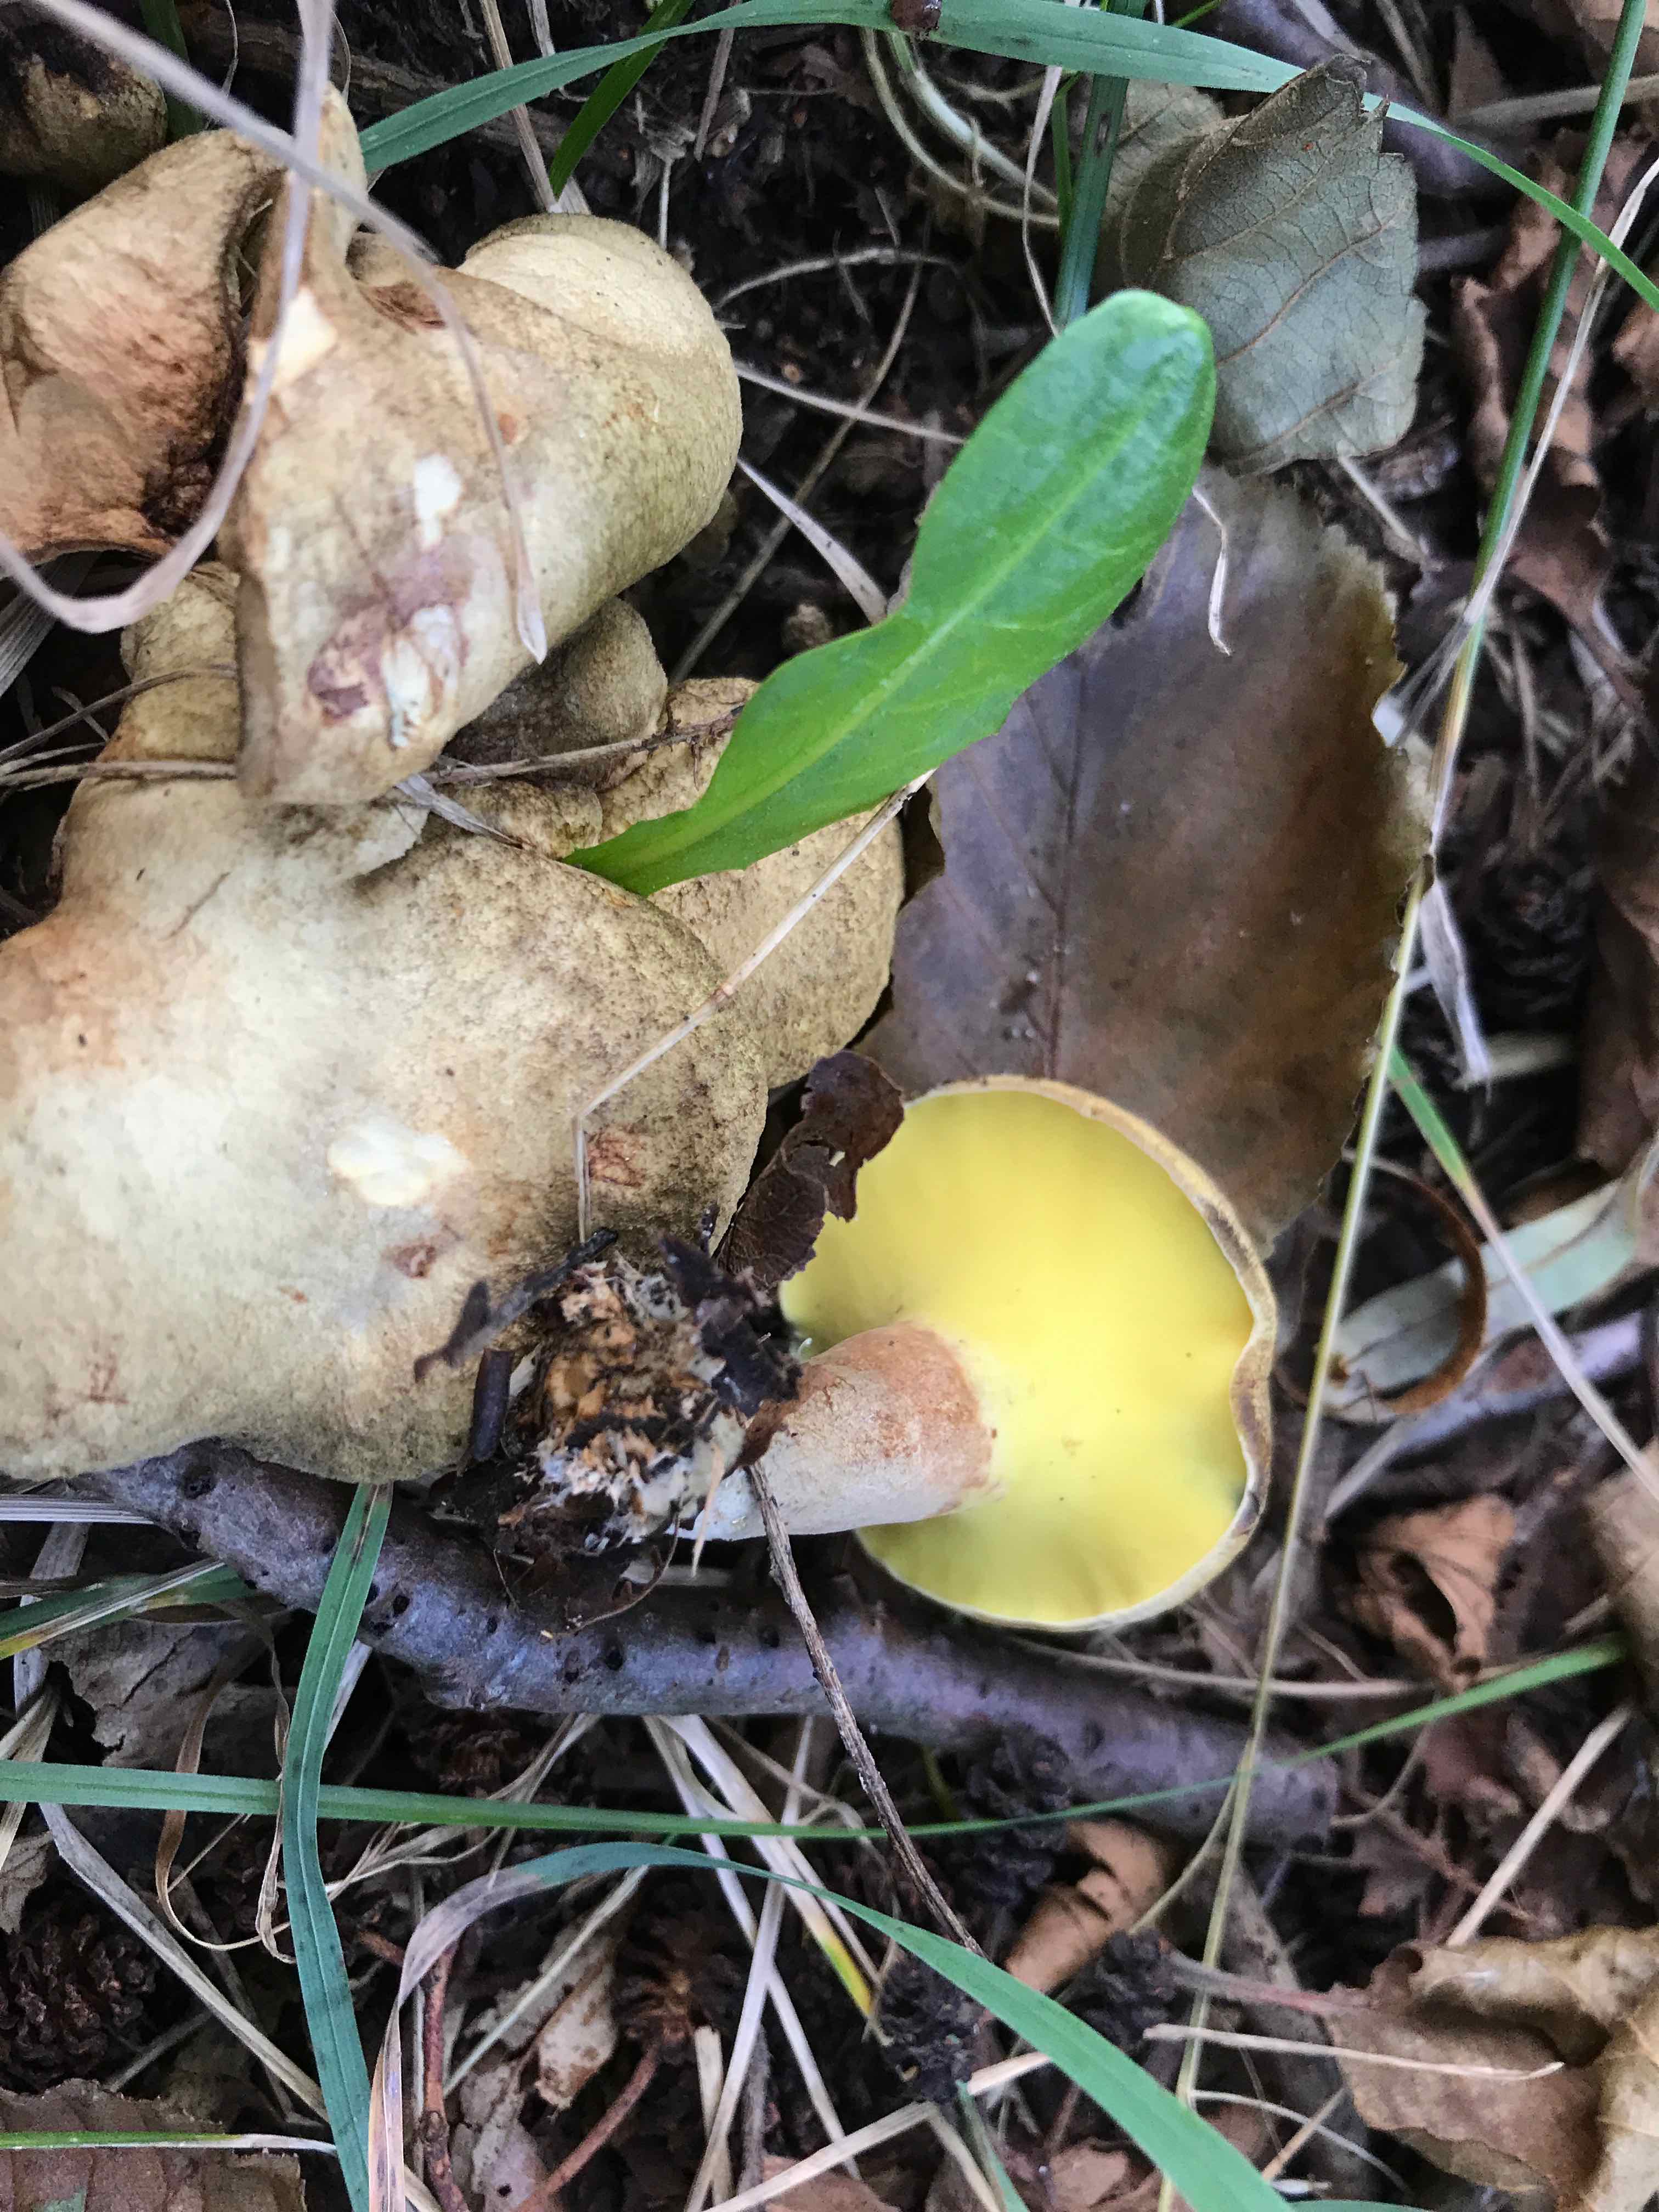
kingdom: Fungi
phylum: Basidiomycota
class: Agaricomycetes
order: Boletales
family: Paxillaceae
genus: Gyrodon
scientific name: Gyrodon lividus
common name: ellerørhat
